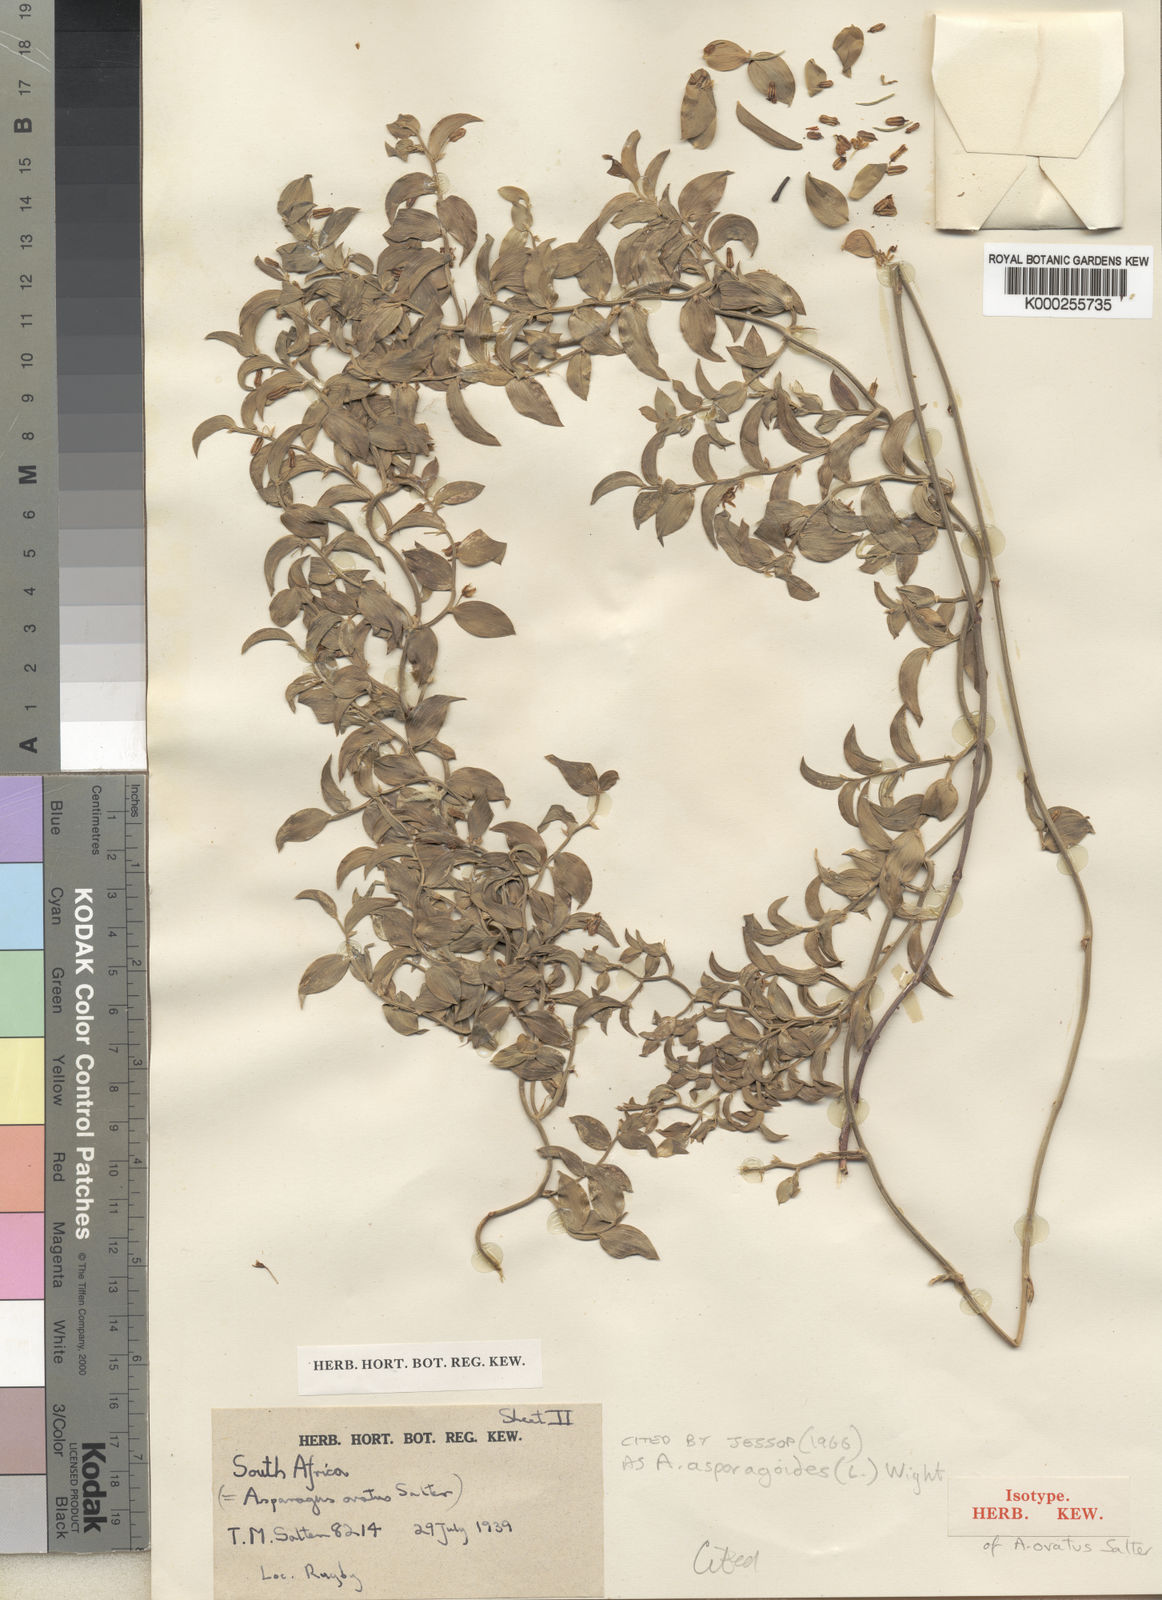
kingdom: Plantae
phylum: Tracheophyta
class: Liliopsida
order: Asparagales
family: Asparagaceae
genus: Asparagus
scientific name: Asparagus
